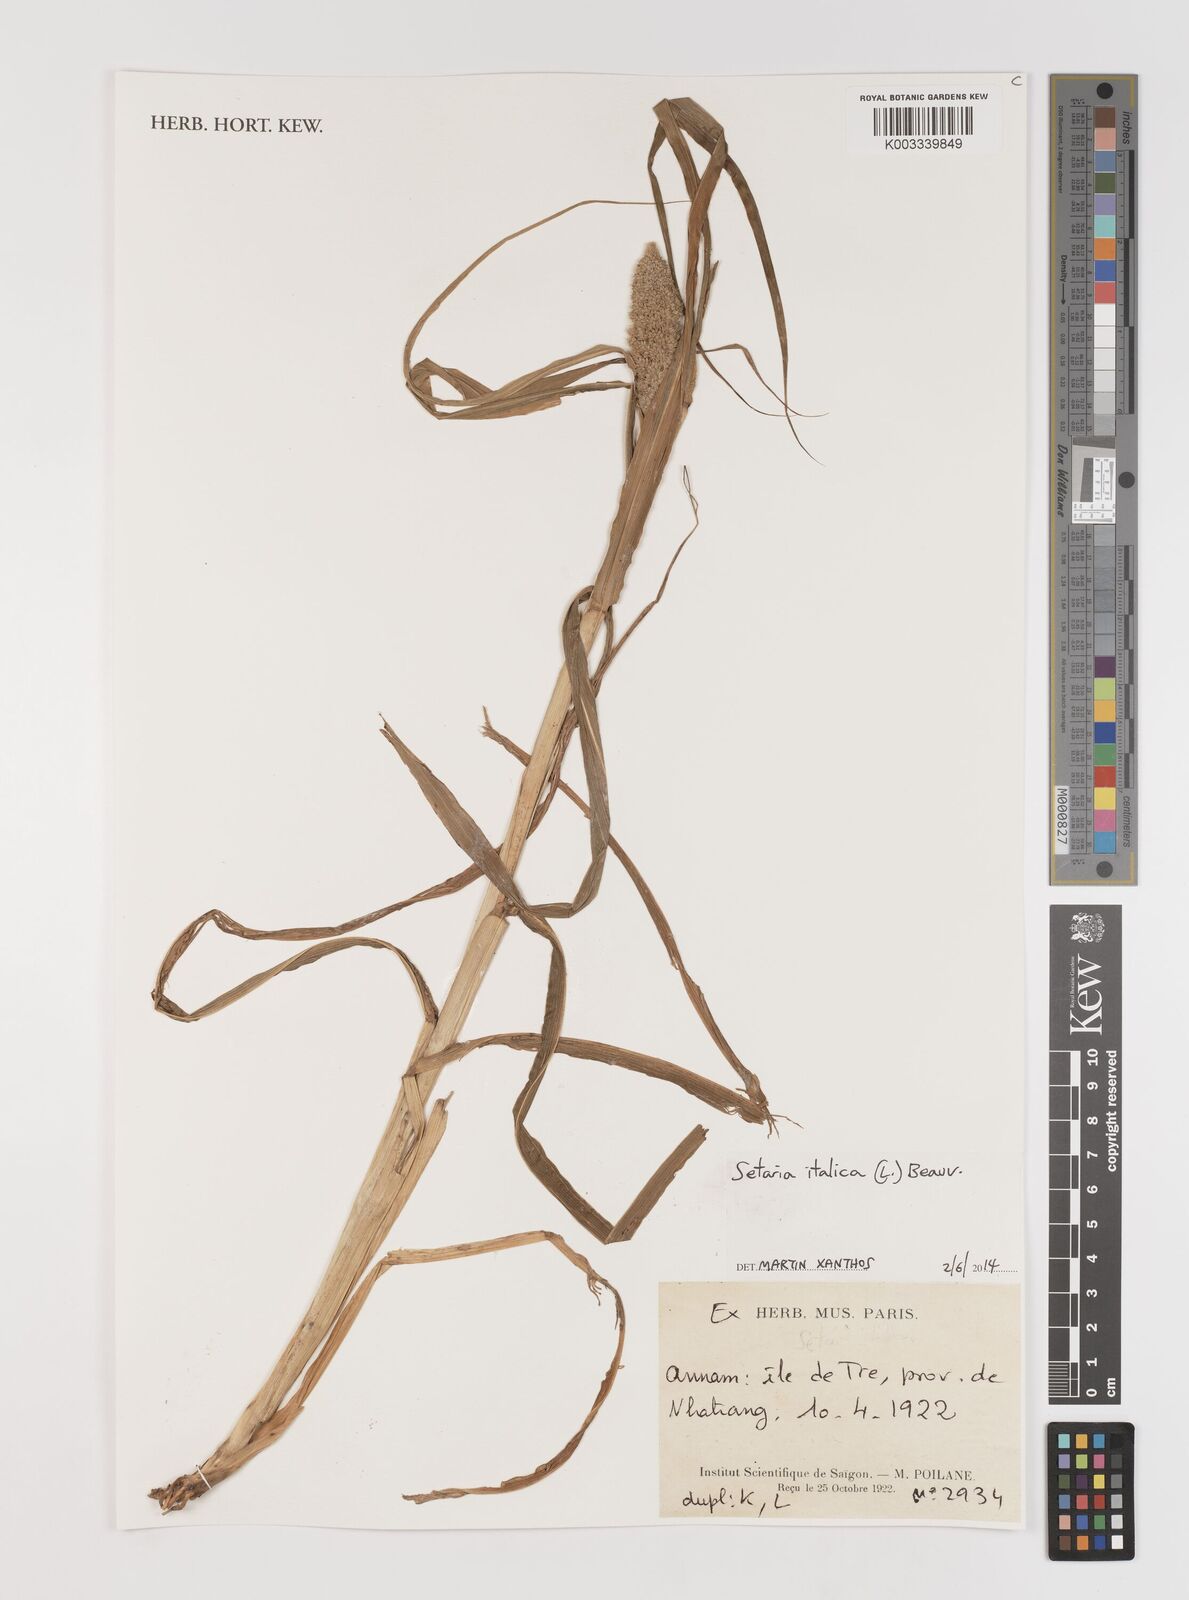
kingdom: Plantae
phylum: Tracheophyta
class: Liliopsida
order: Poales
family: Poaceae
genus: Setaria
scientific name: Setaria italica
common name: Foxtail bristle-grass
